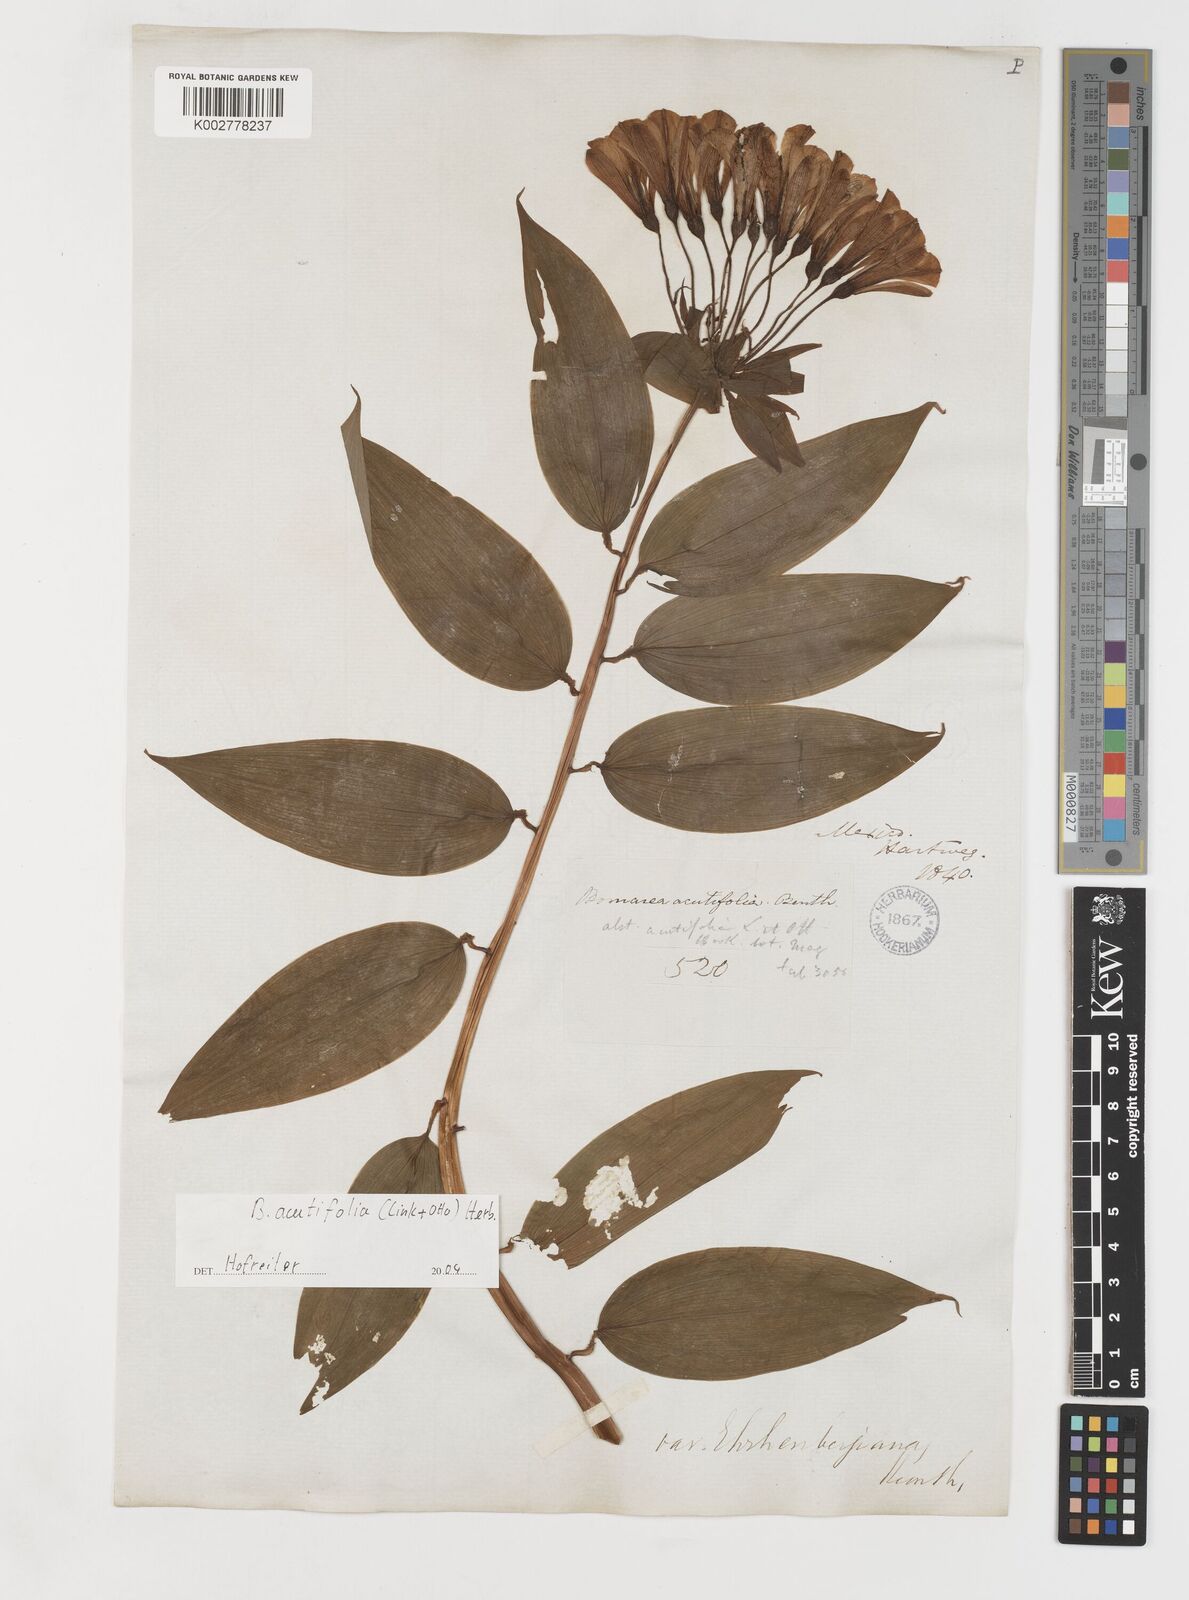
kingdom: Plantae
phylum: Tracheophyta
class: Liliopsida
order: Liliales
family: Alstroemeriaceae
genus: Bomarea
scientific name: Bomarea acutifolia
